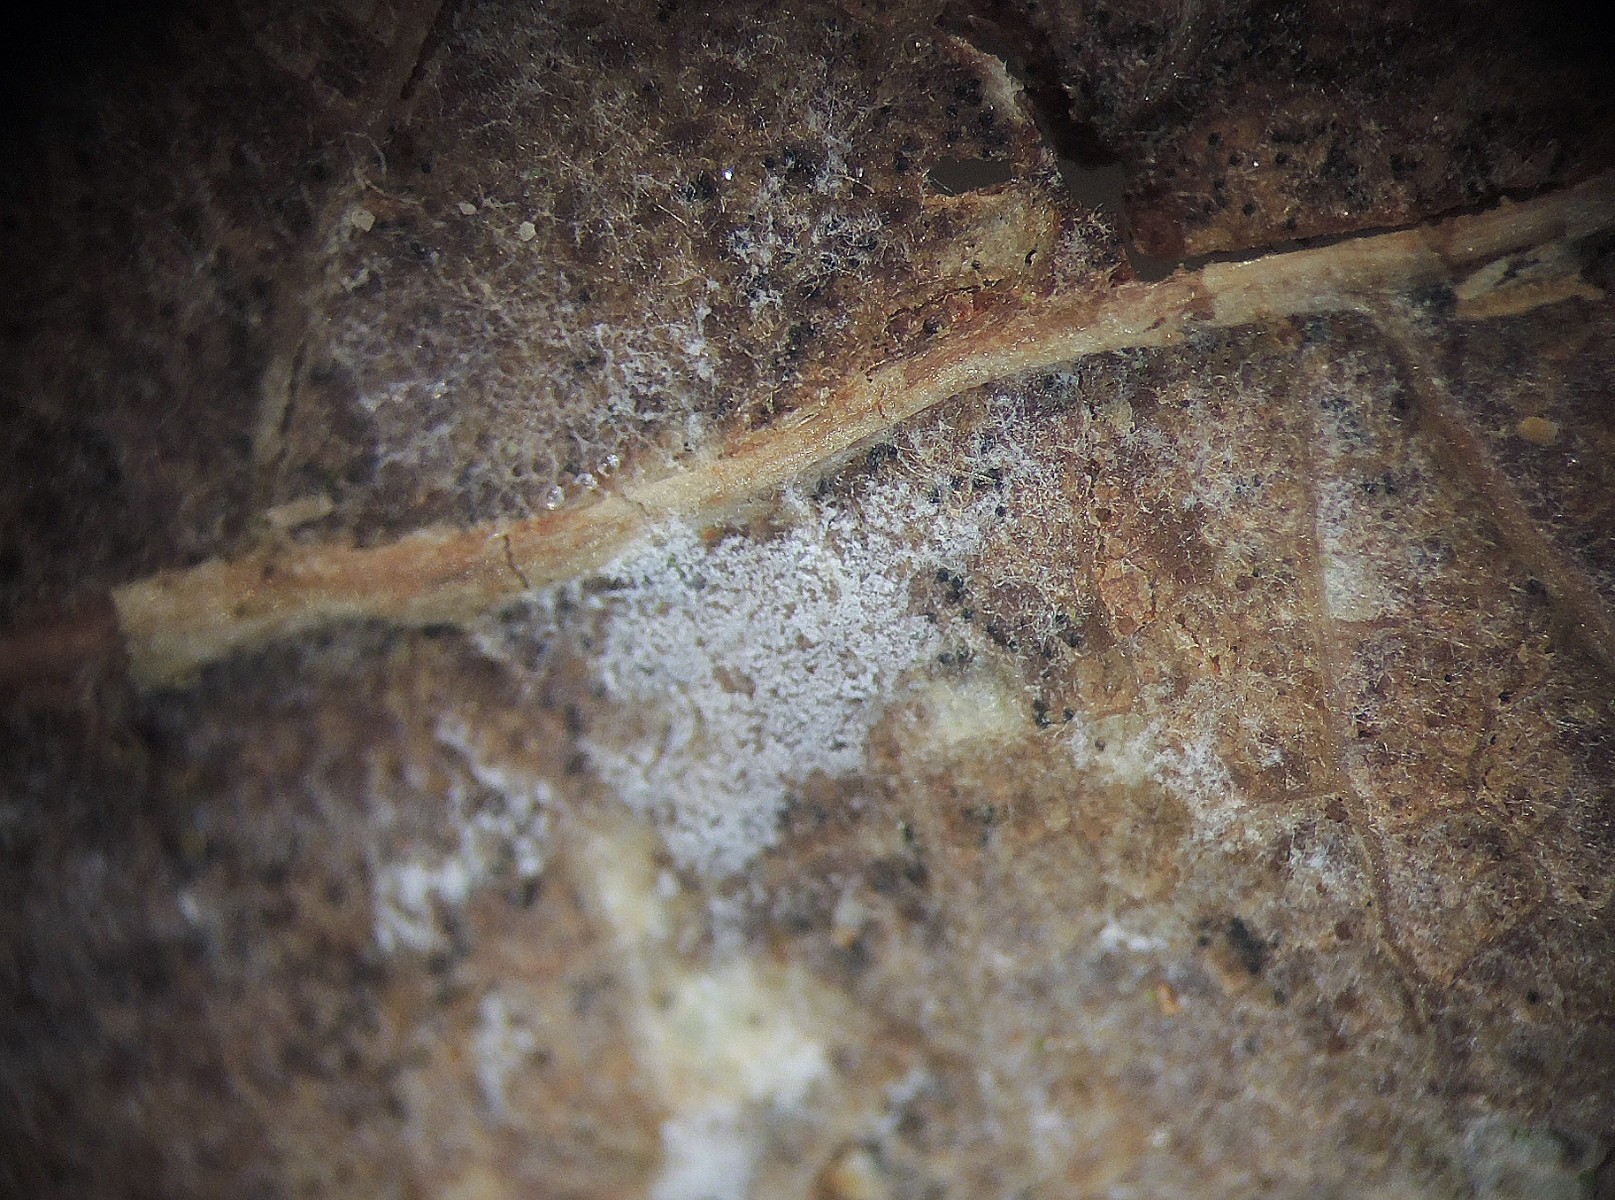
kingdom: Fungi
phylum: Basidiomycota
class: Agaricomycetes
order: Atheliales
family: Atheliaceae
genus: Athelia
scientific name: Athelia binucleospora
